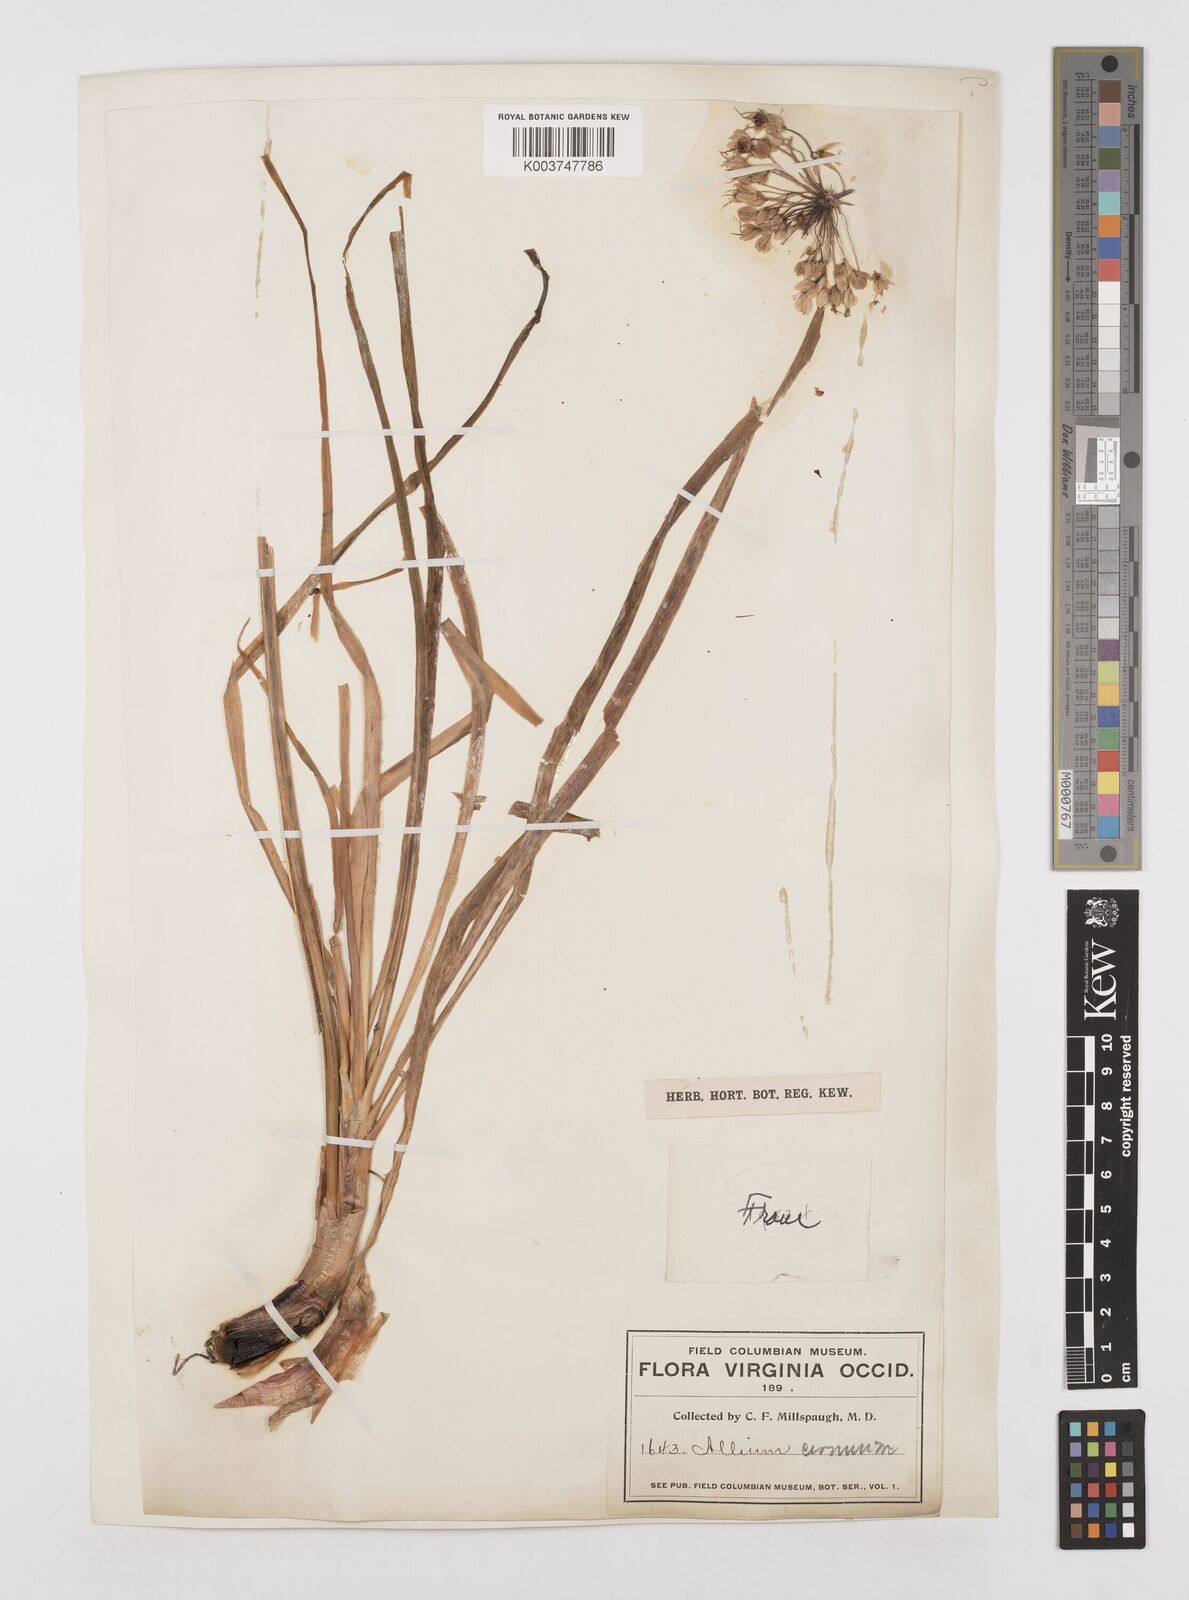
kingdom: Plantae
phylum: Tracheophyta
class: Liliopsida
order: Asparagales
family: Amaryllidaceae
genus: Allium
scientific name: Allium cernuum
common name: Nodding onion
